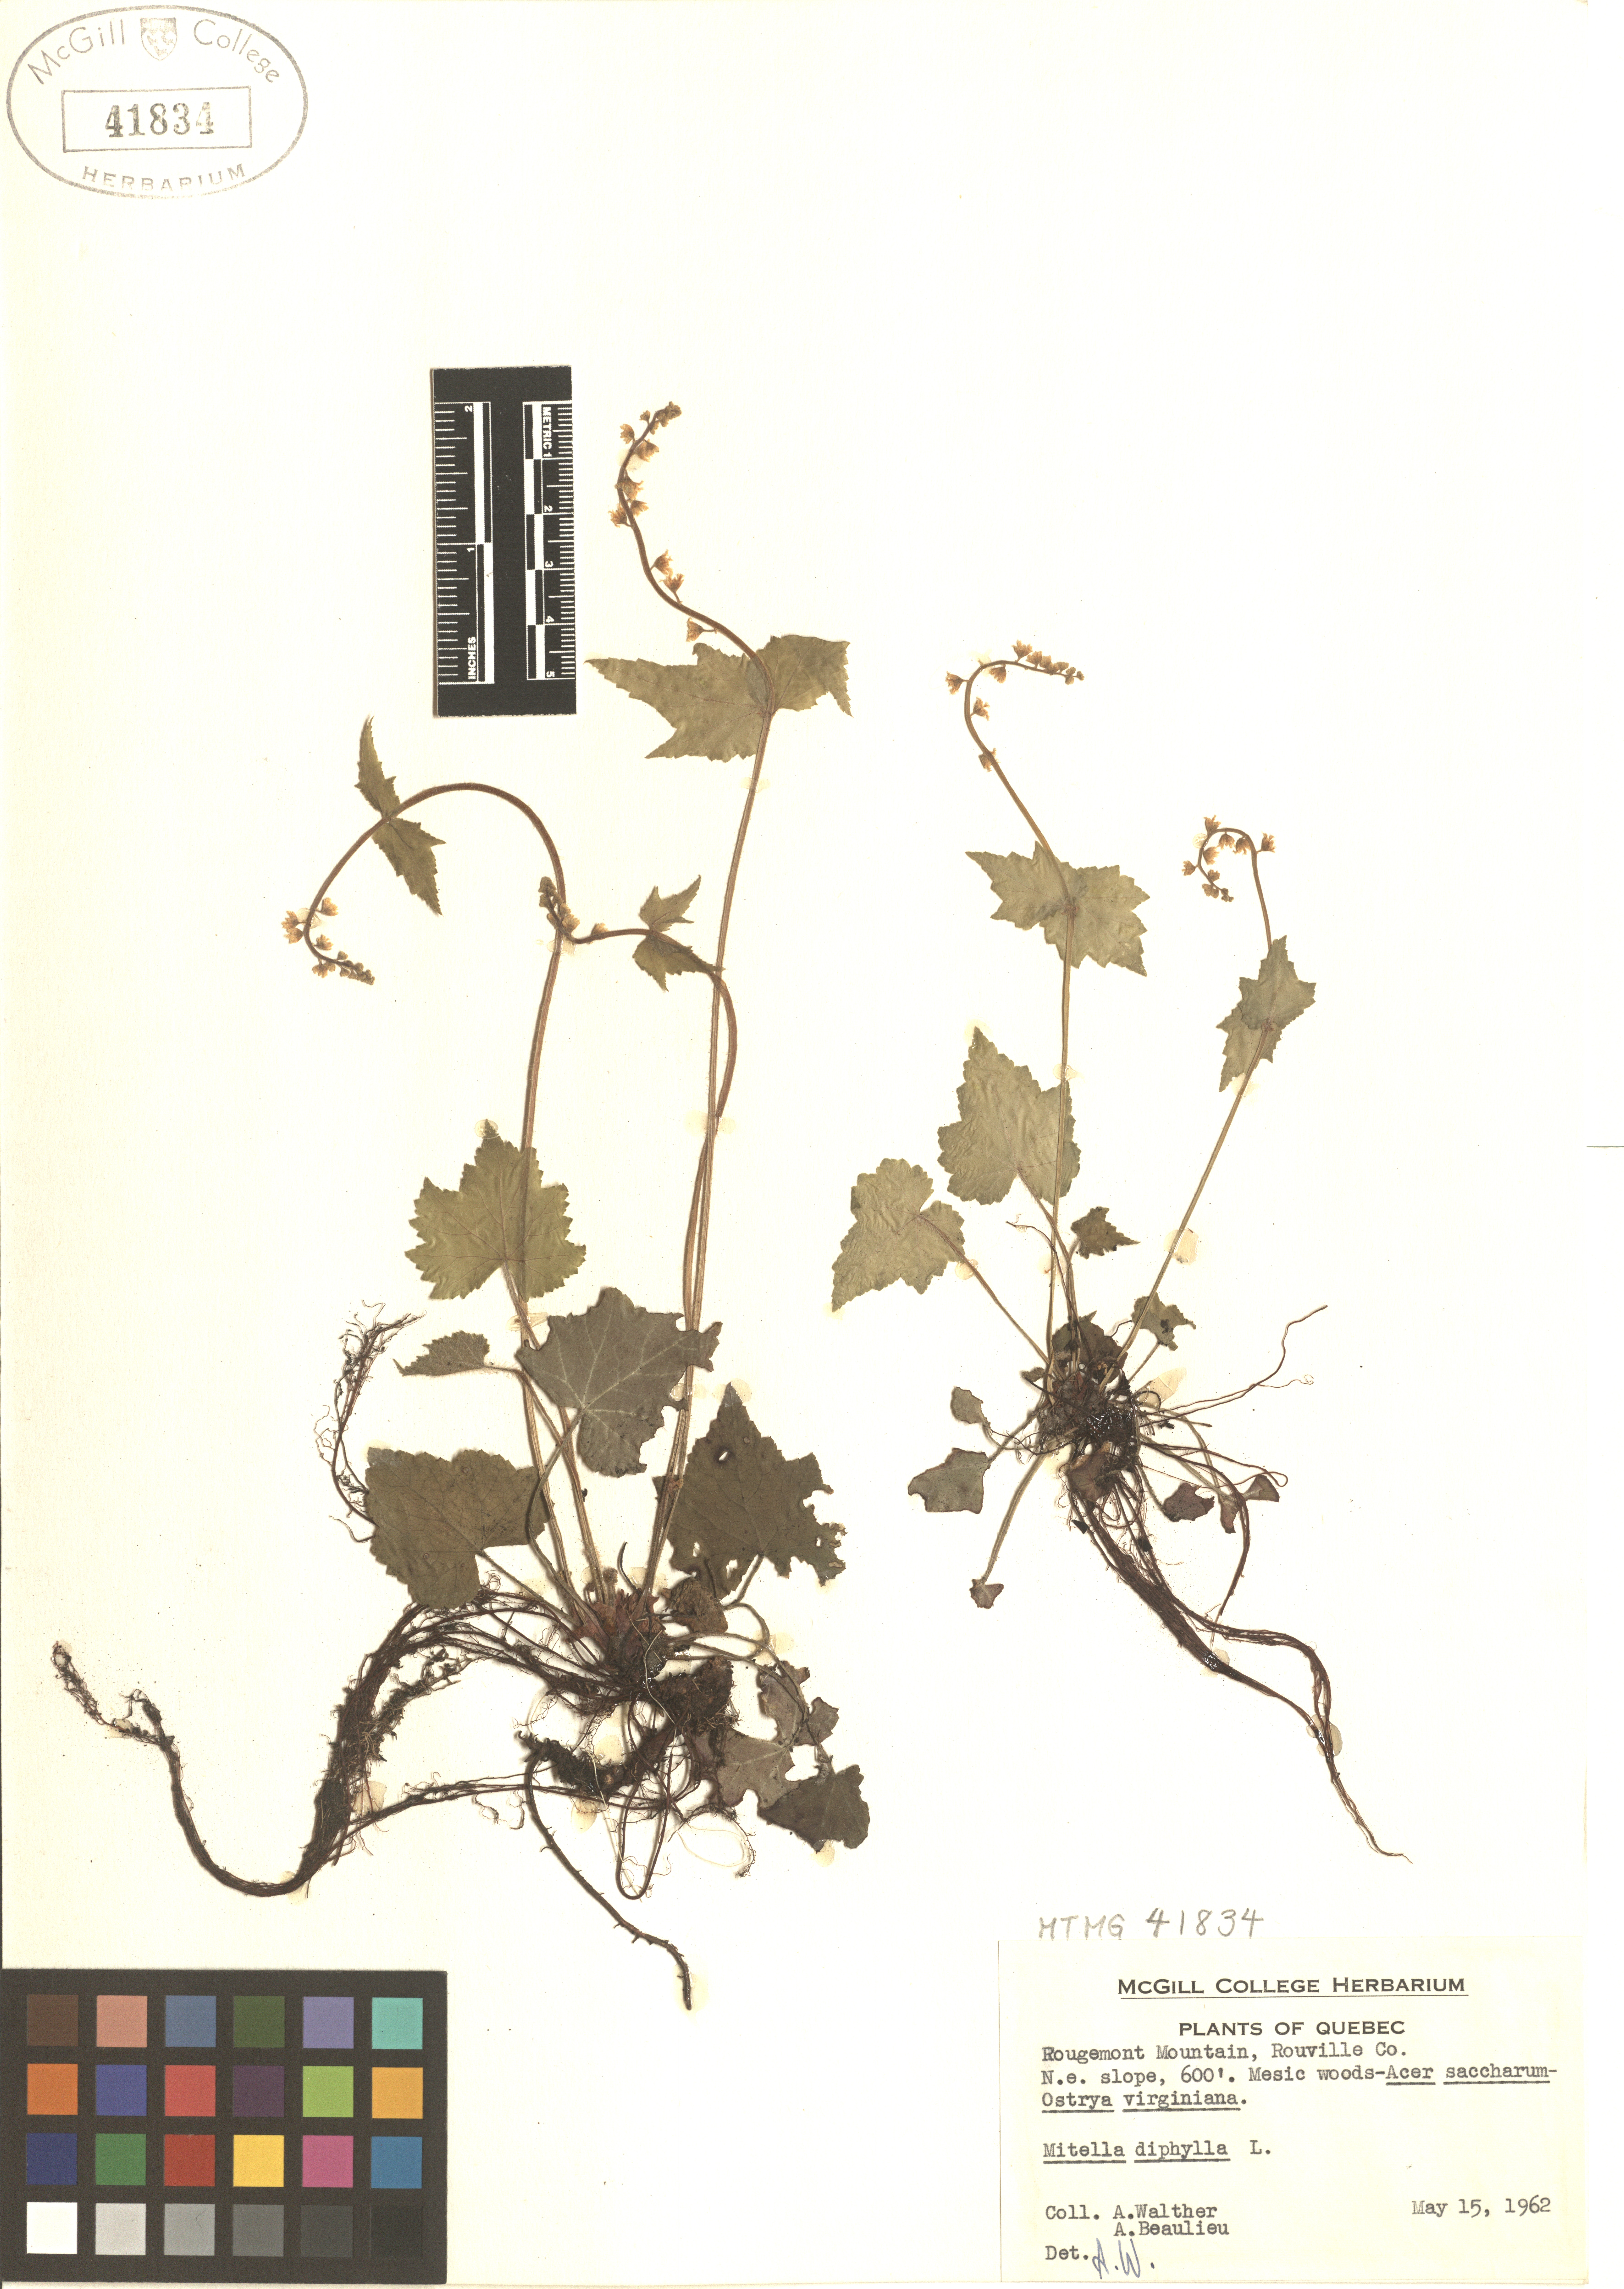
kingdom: Plantae
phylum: Tracheophyta
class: Magnoliopsida
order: Saxifragales
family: Saxifragaceae
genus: Mitella
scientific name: Mitella diphylla
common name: Coolwort
